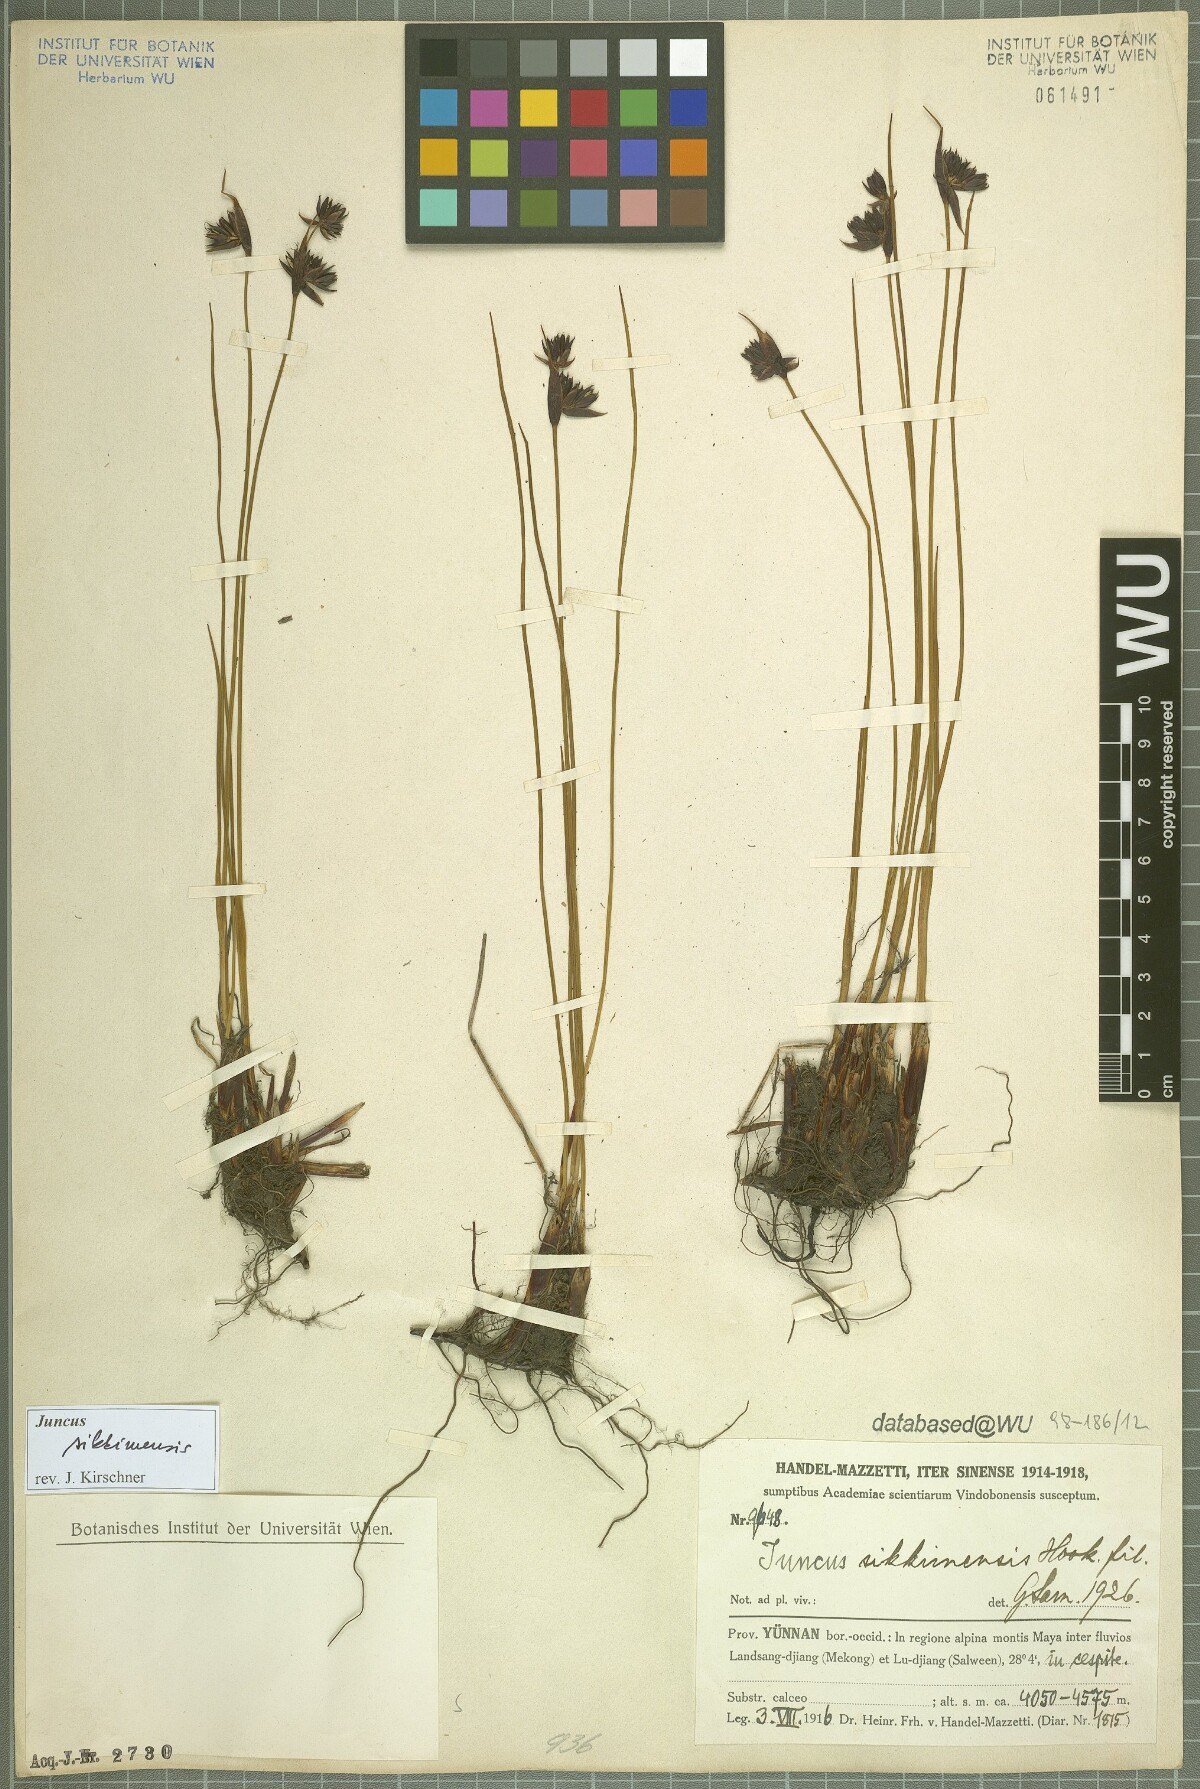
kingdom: Plantae
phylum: Tracheophyta
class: Liliopsida
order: Poales
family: Juncaceae
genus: Juncus
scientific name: Juncus sikkimensis
